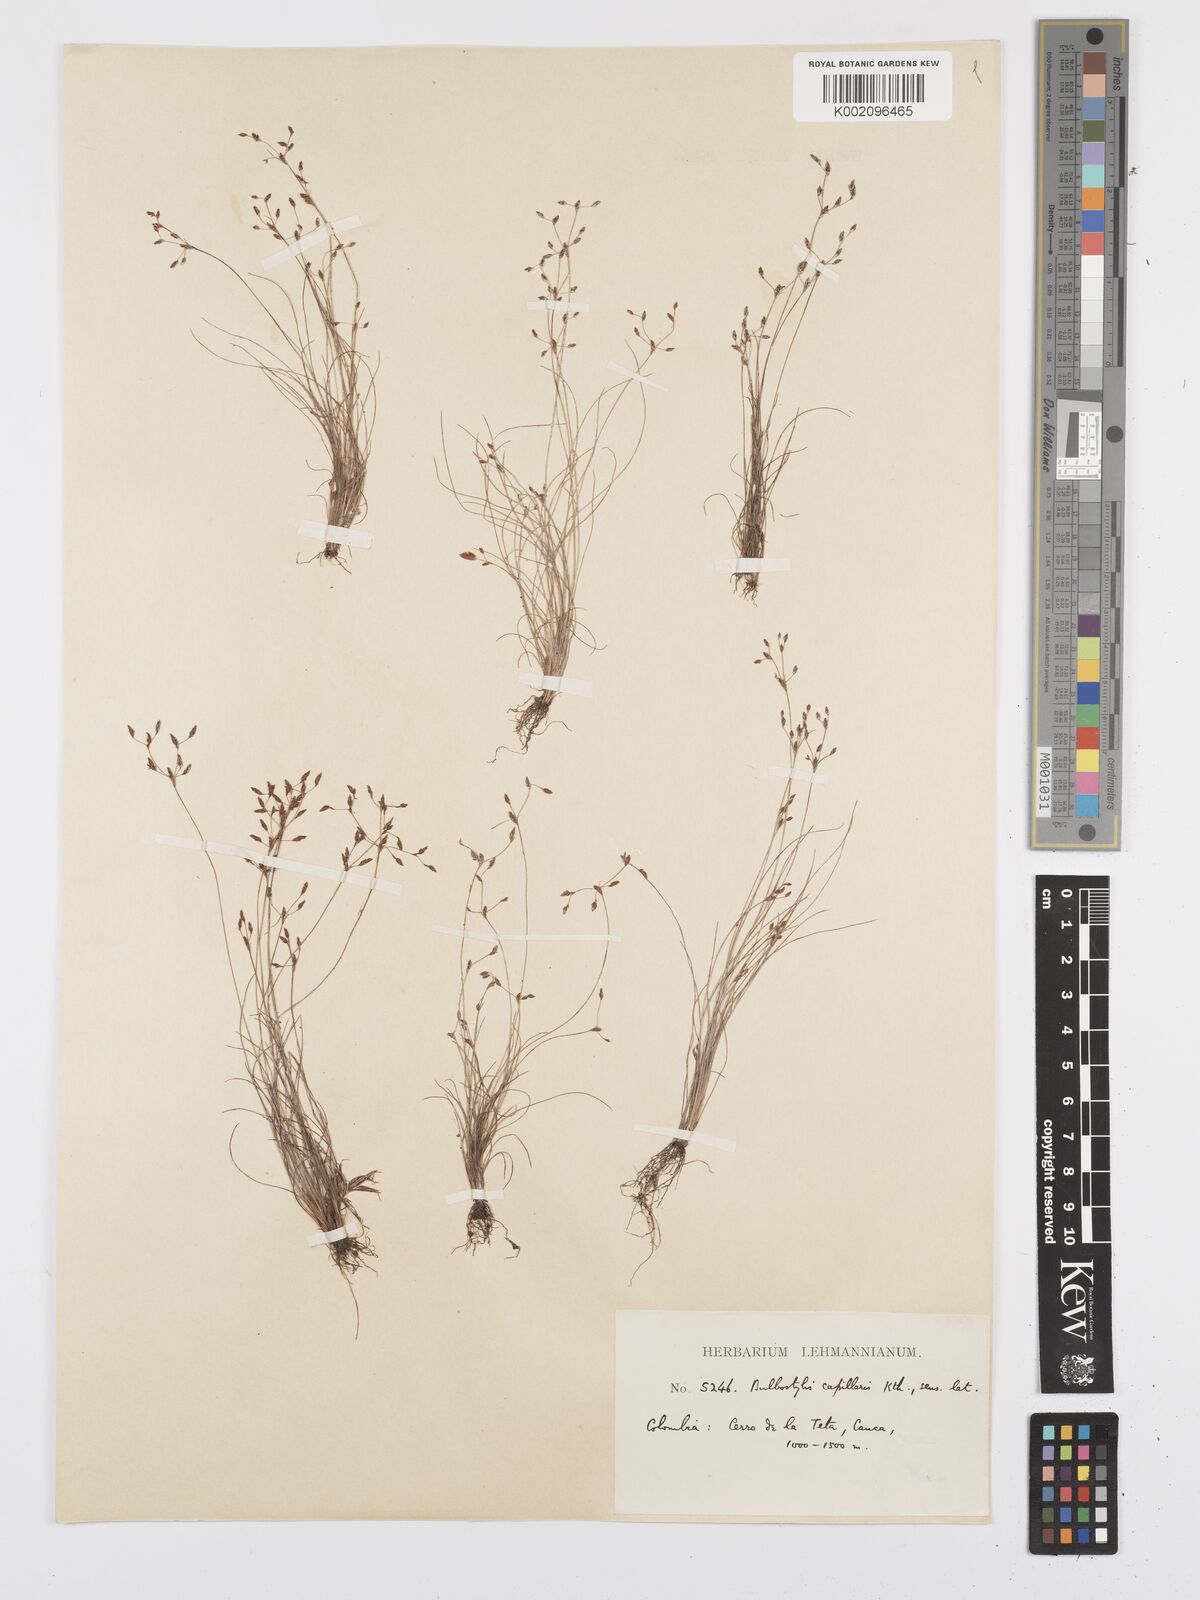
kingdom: Plantae
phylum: Tracheophyta
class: Liliopsida
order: Poales
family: Cyperaceae
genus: Bulbostylis
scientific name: Bulbostylis tenuifolia
